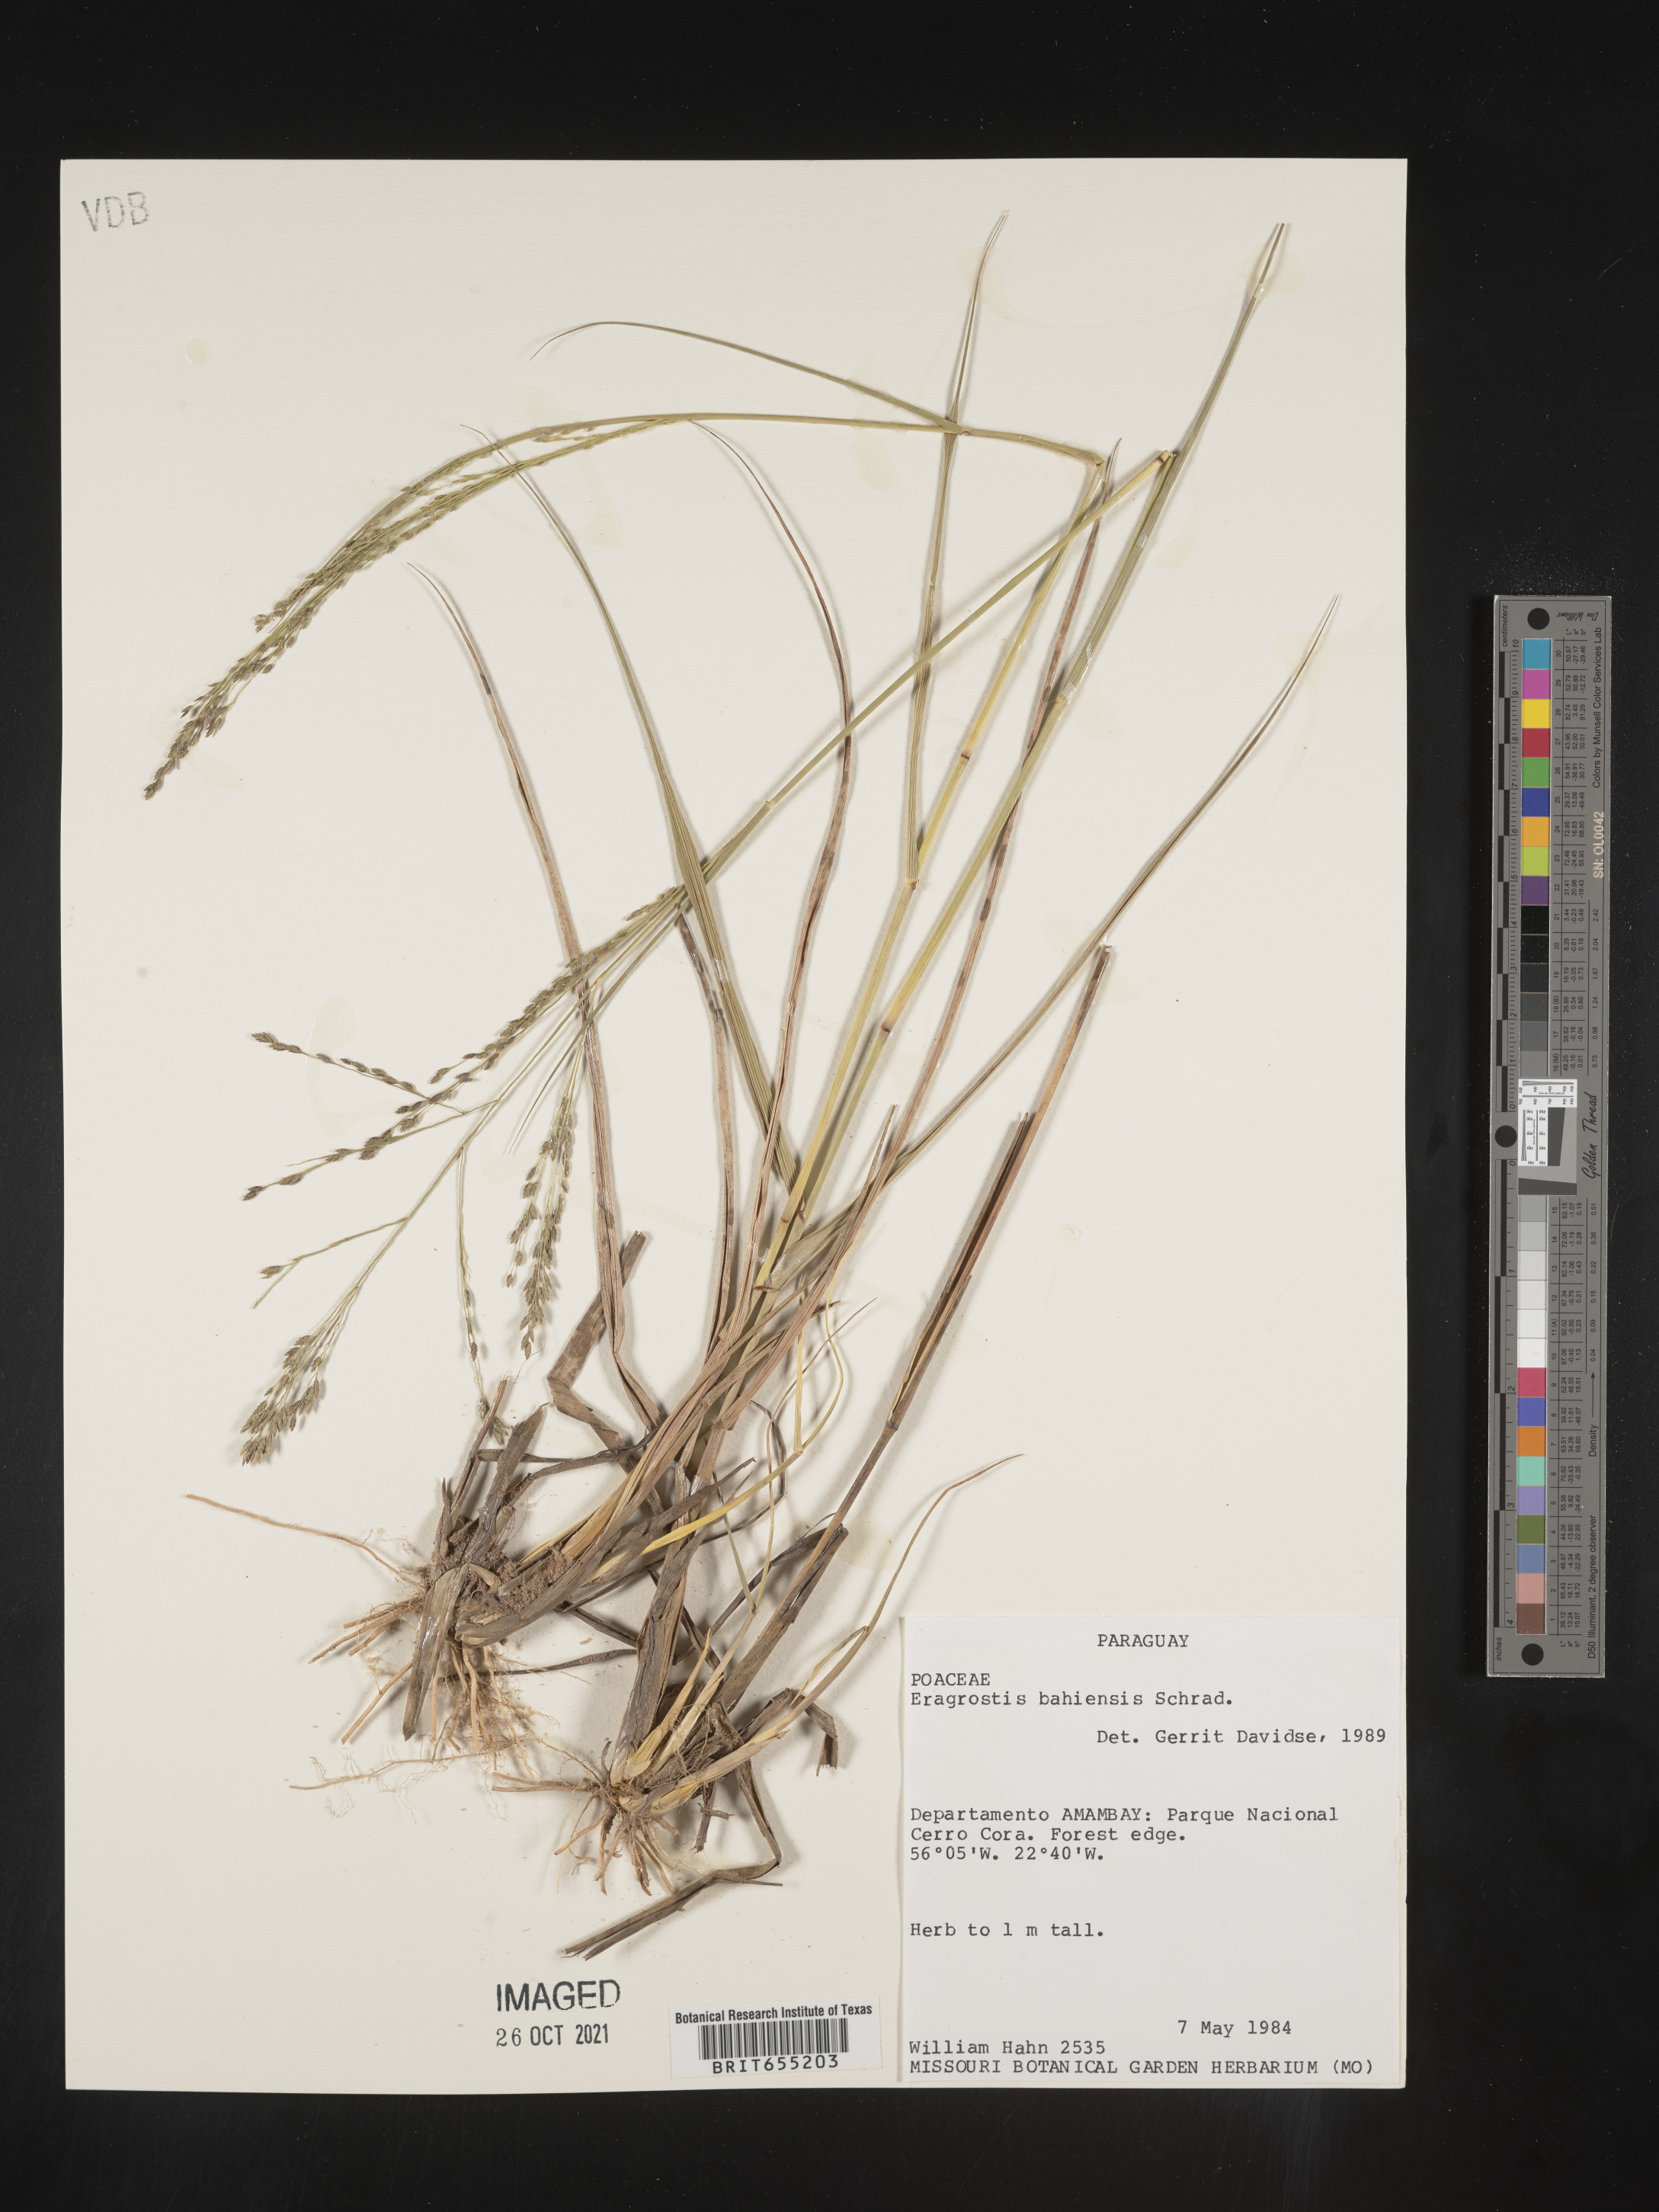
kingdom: Plantae
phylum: Tracheophyta
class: Liliopsida
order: Poales
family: Poaceae
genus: Eragrostis
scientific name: Eragrostis
